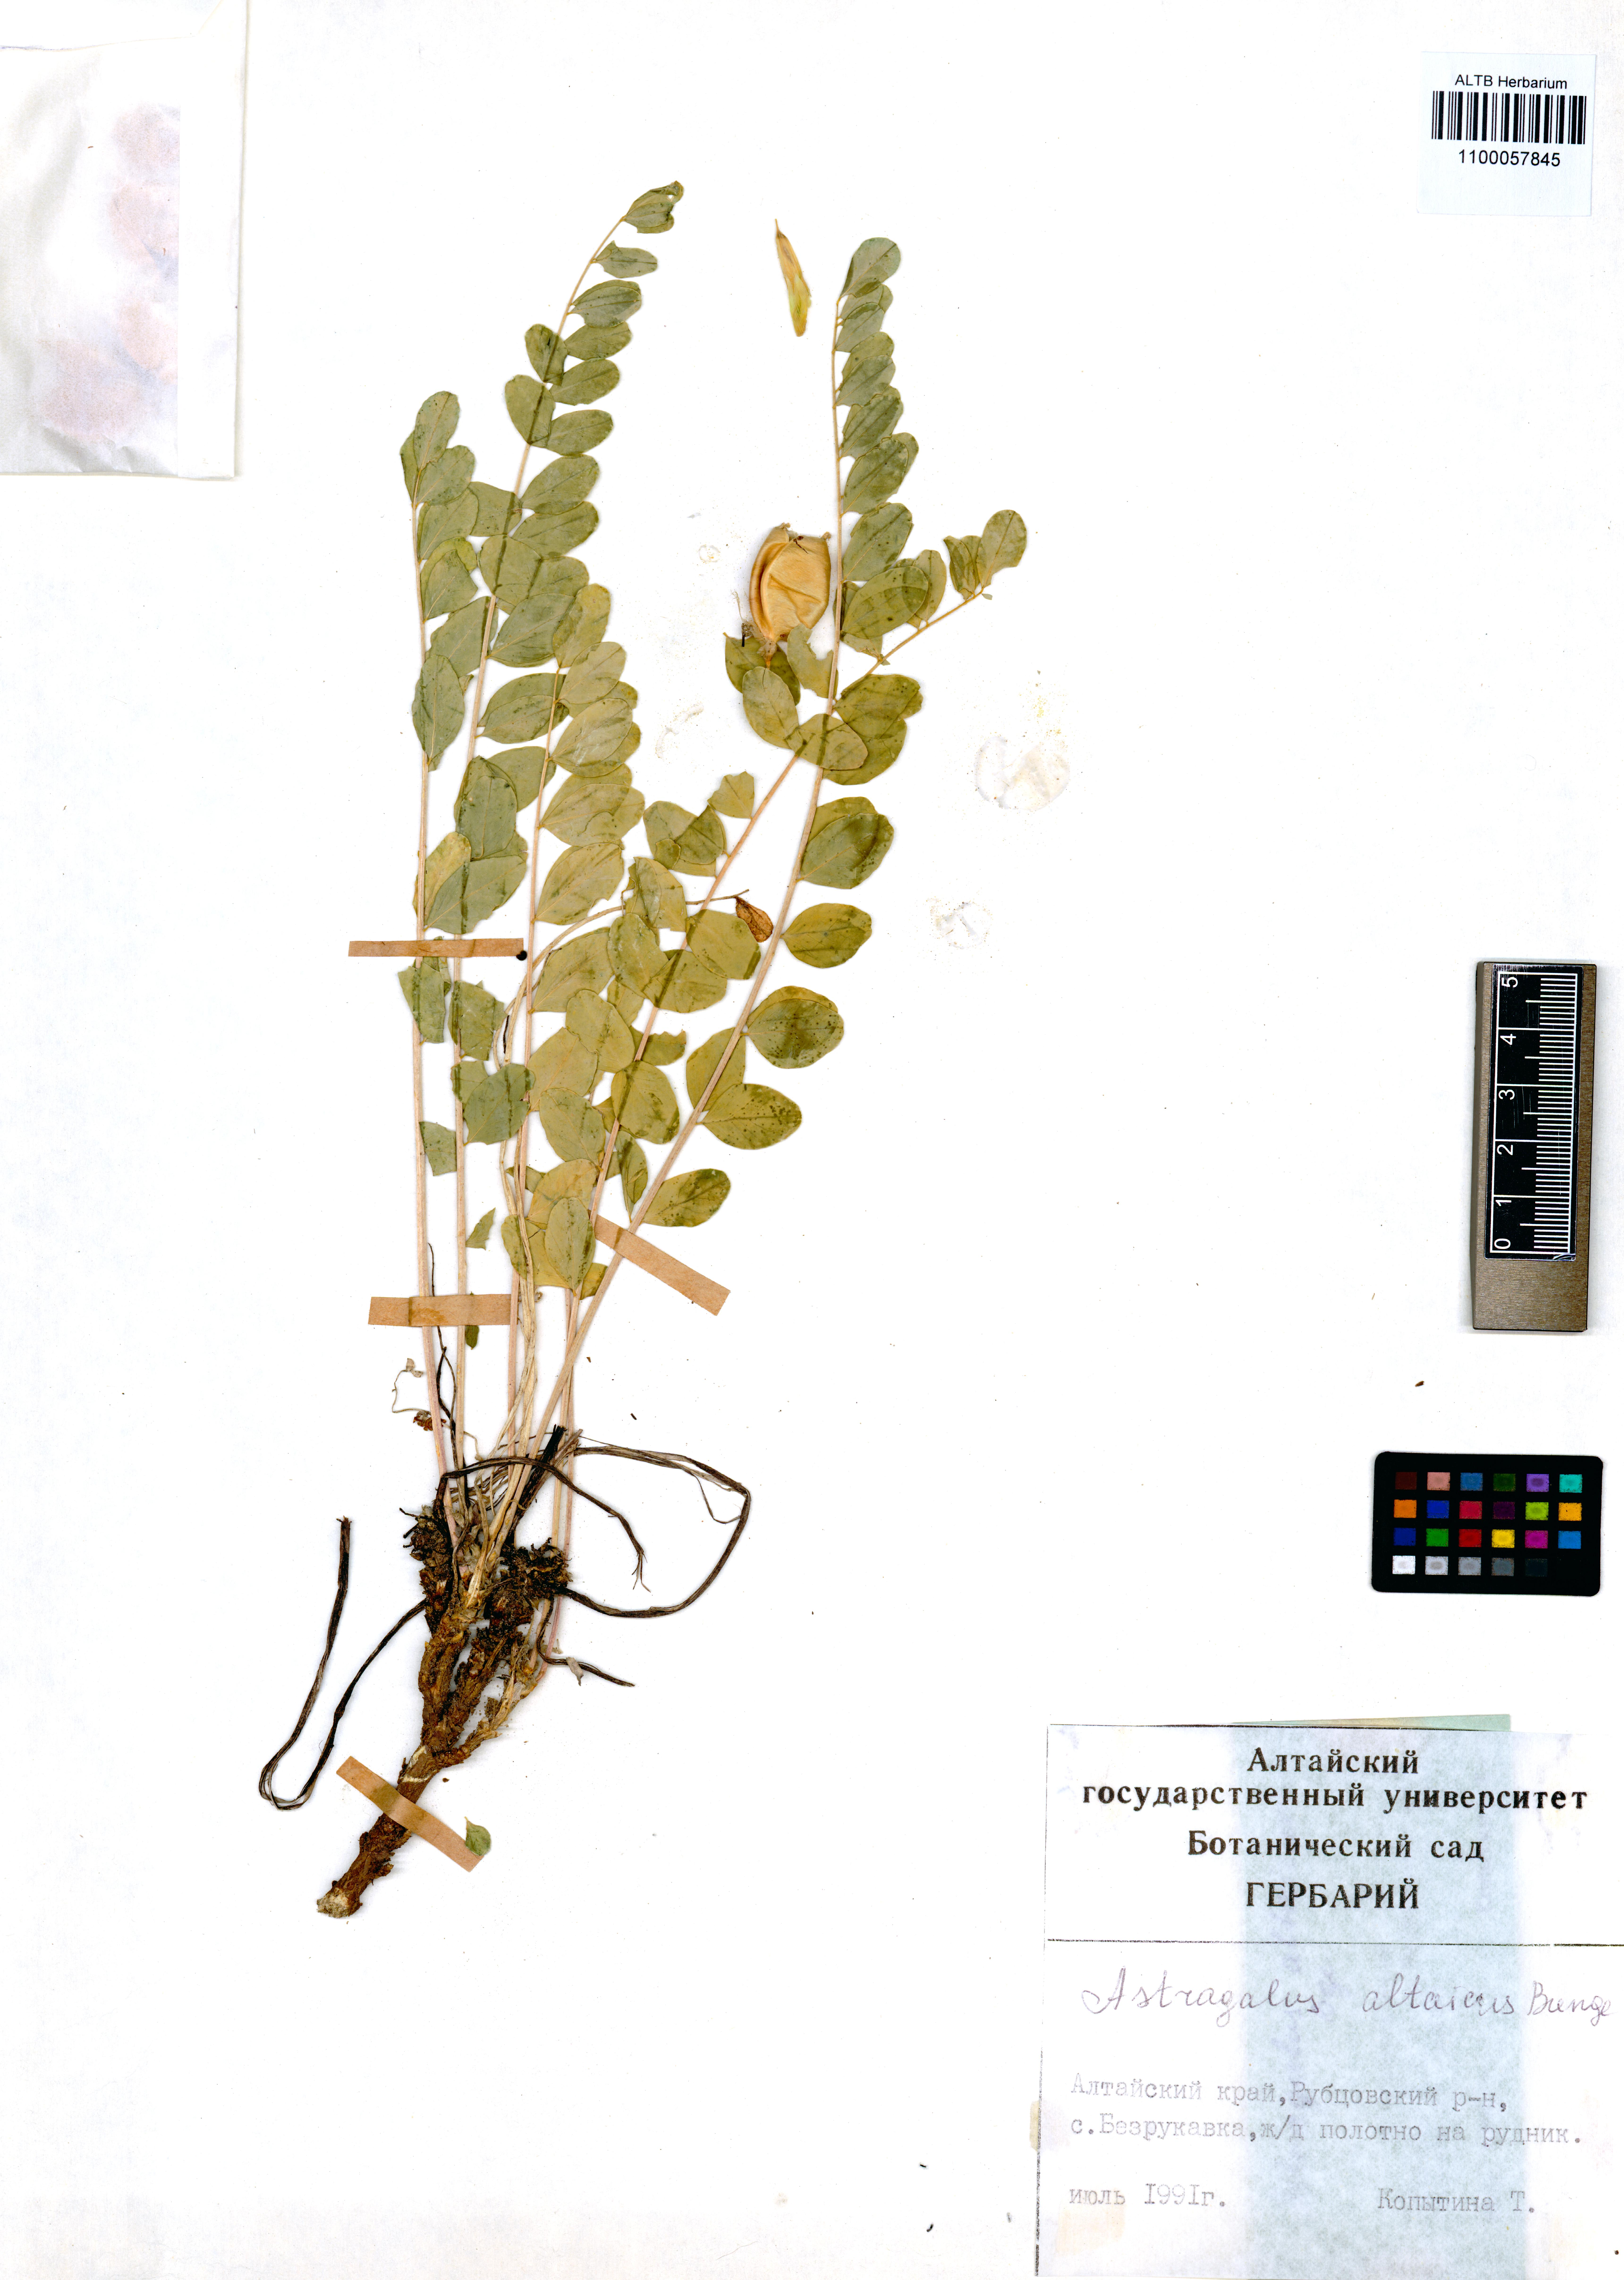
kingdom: Plantae
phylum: Tracheophyta
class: Magnoliopsida
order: Fabales
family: Fabaceae
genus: Astragalus
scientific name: Astragalus altaicola
